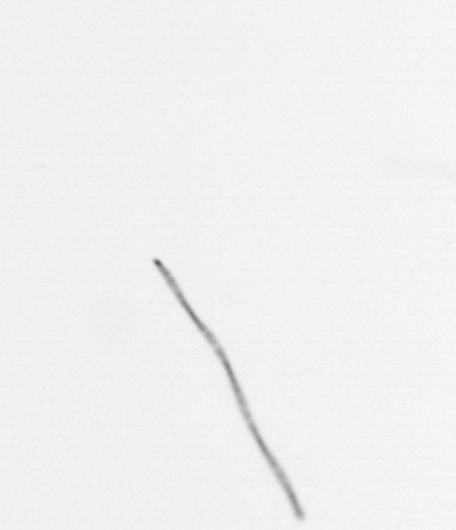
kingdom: Chromista
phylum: Ochrophyta
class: Bacillariophyceae
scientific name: Bacillariophyceae
